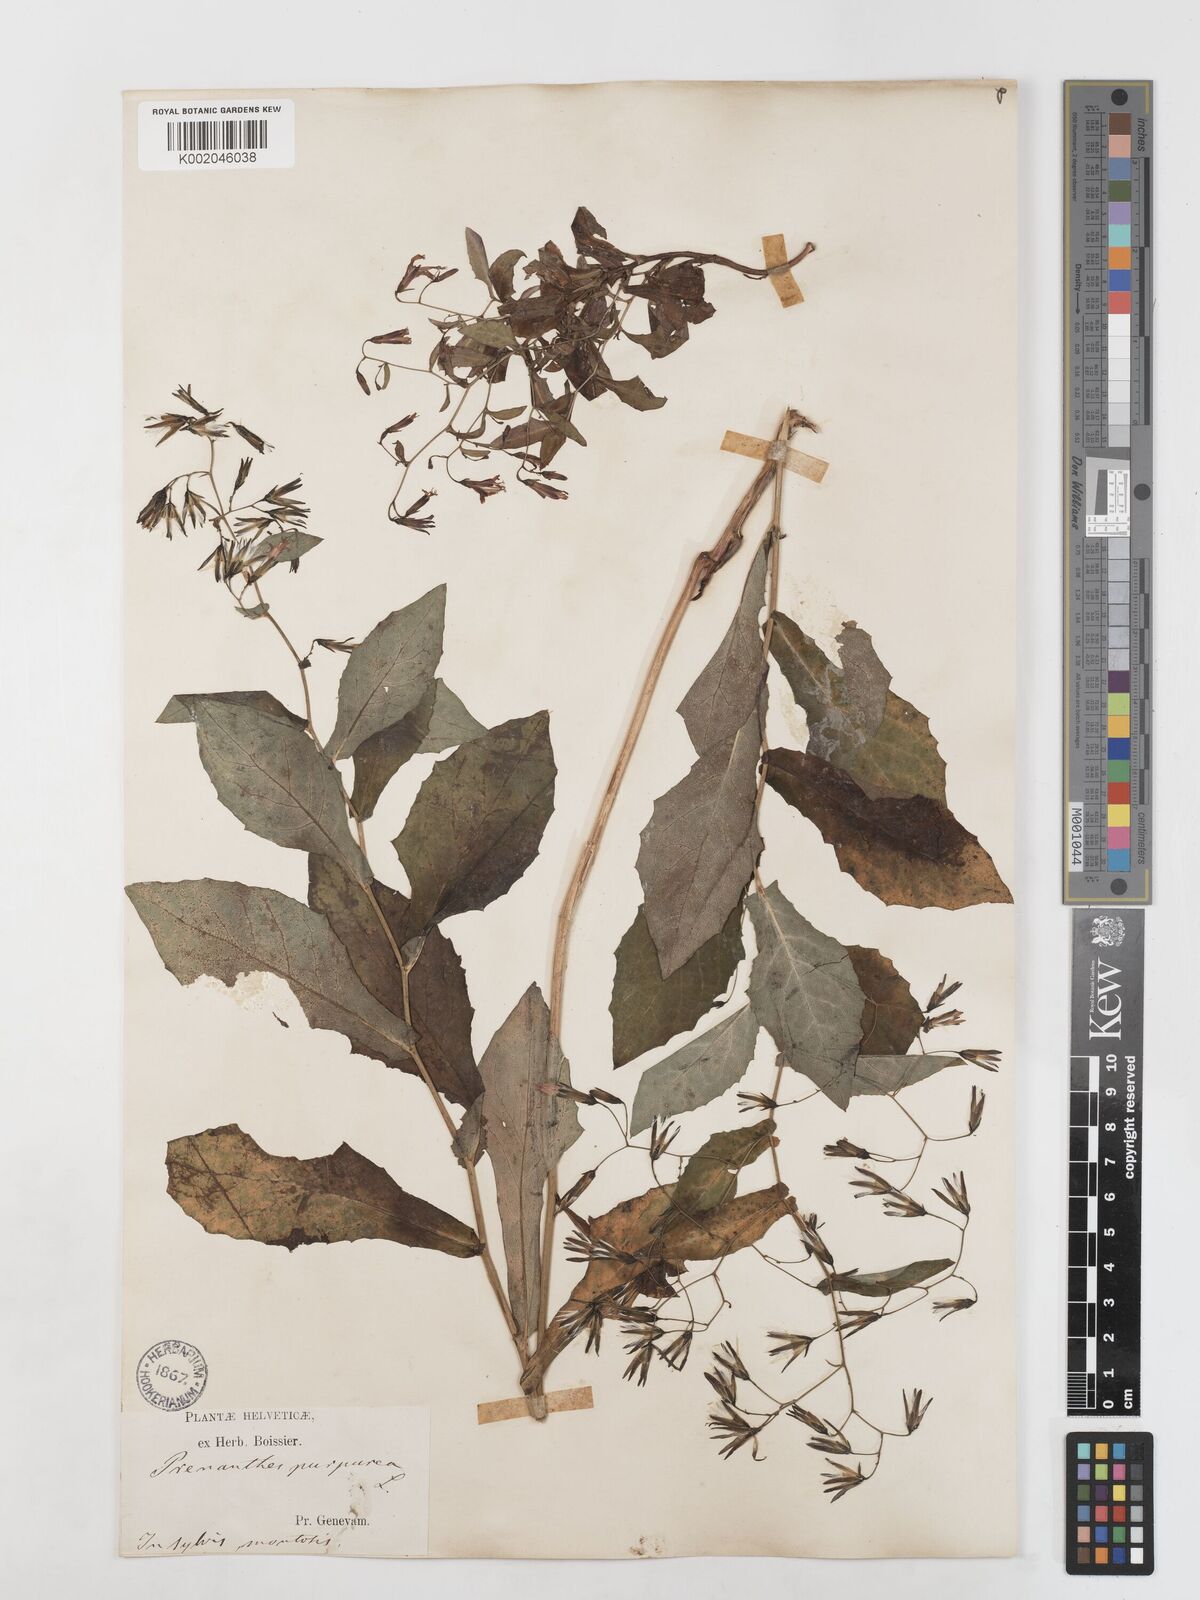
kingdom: Plantae
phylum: Tracheophyta
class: Magnoliopsida
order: Asterales
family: Asteraceae
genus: Prenanthes
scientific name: Prenanthes purpurea
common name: Purple lettuce
